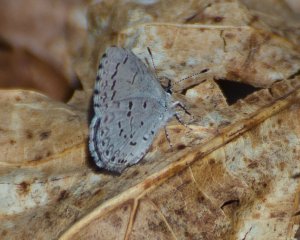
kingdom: Animalia
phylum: Arthropoda
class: Insecta
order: Lepidoptera
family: Lycaenidae
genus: Celastrina
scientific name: Celastrina lucia
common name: Northern Spring Azure
